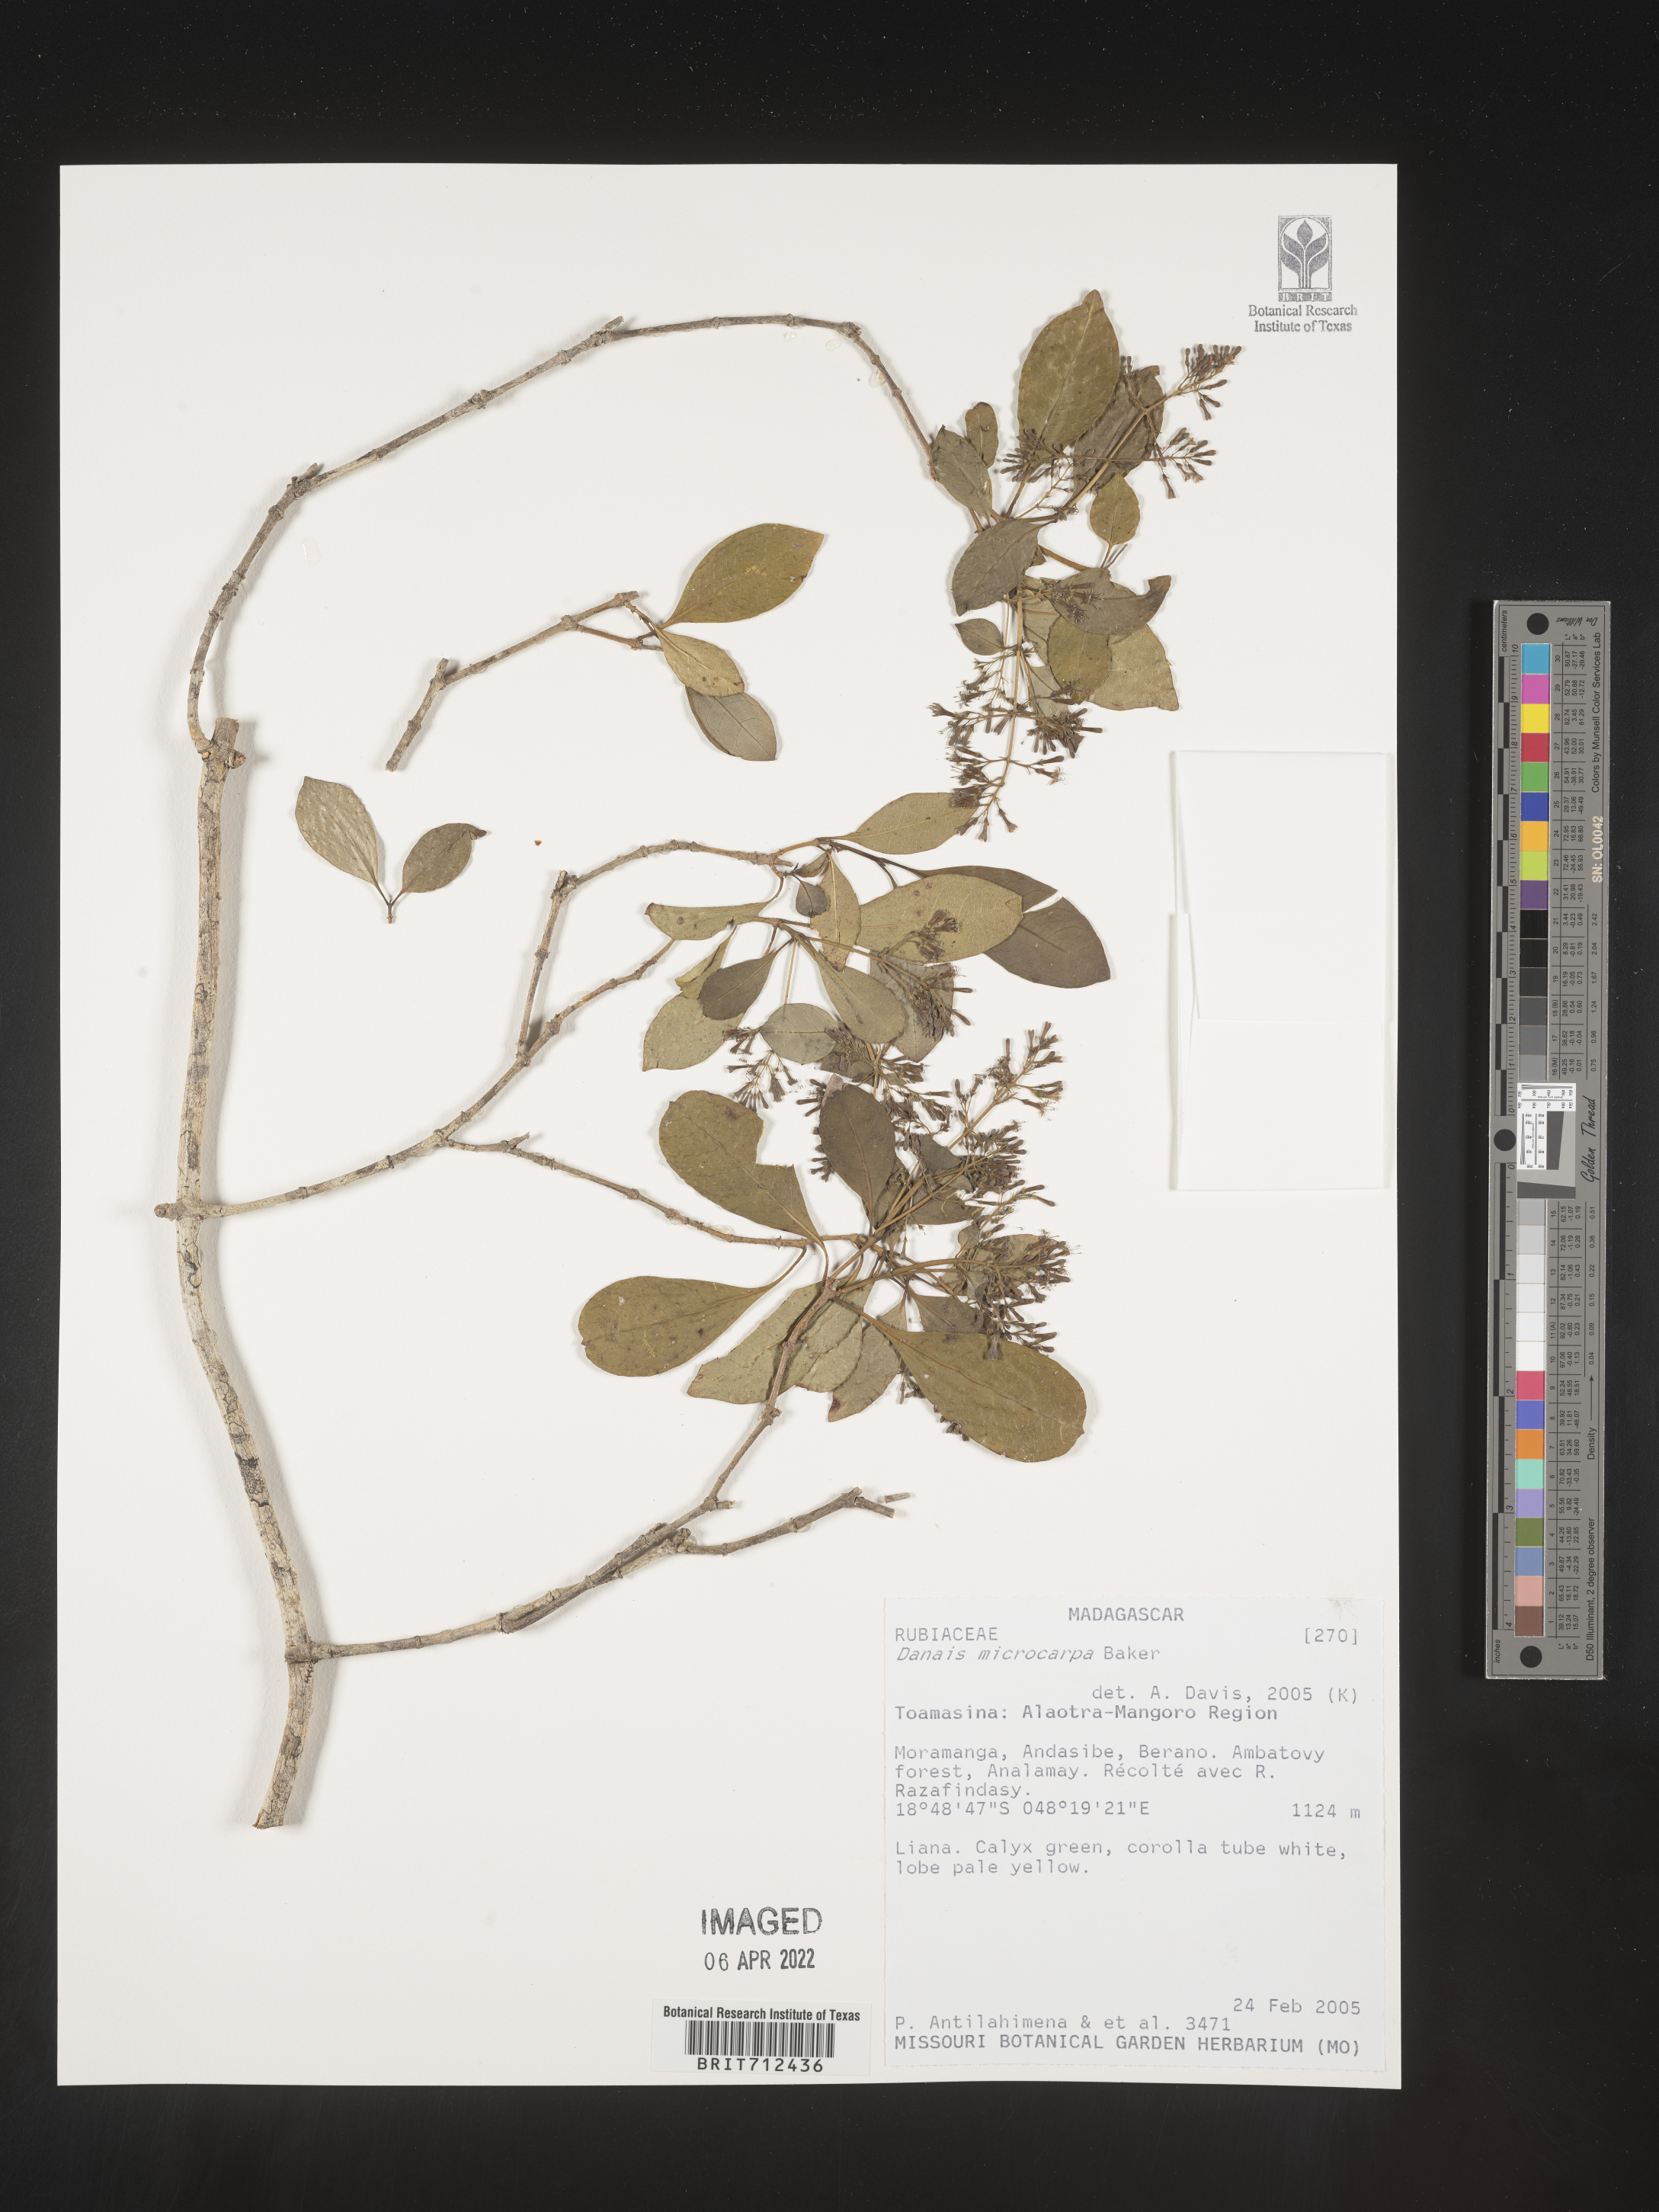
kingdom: Plantae
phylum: Tracheophyta
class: Magnoliopsida
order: Gentianales
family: Rubiaceae
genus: Danais
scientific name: Danais
